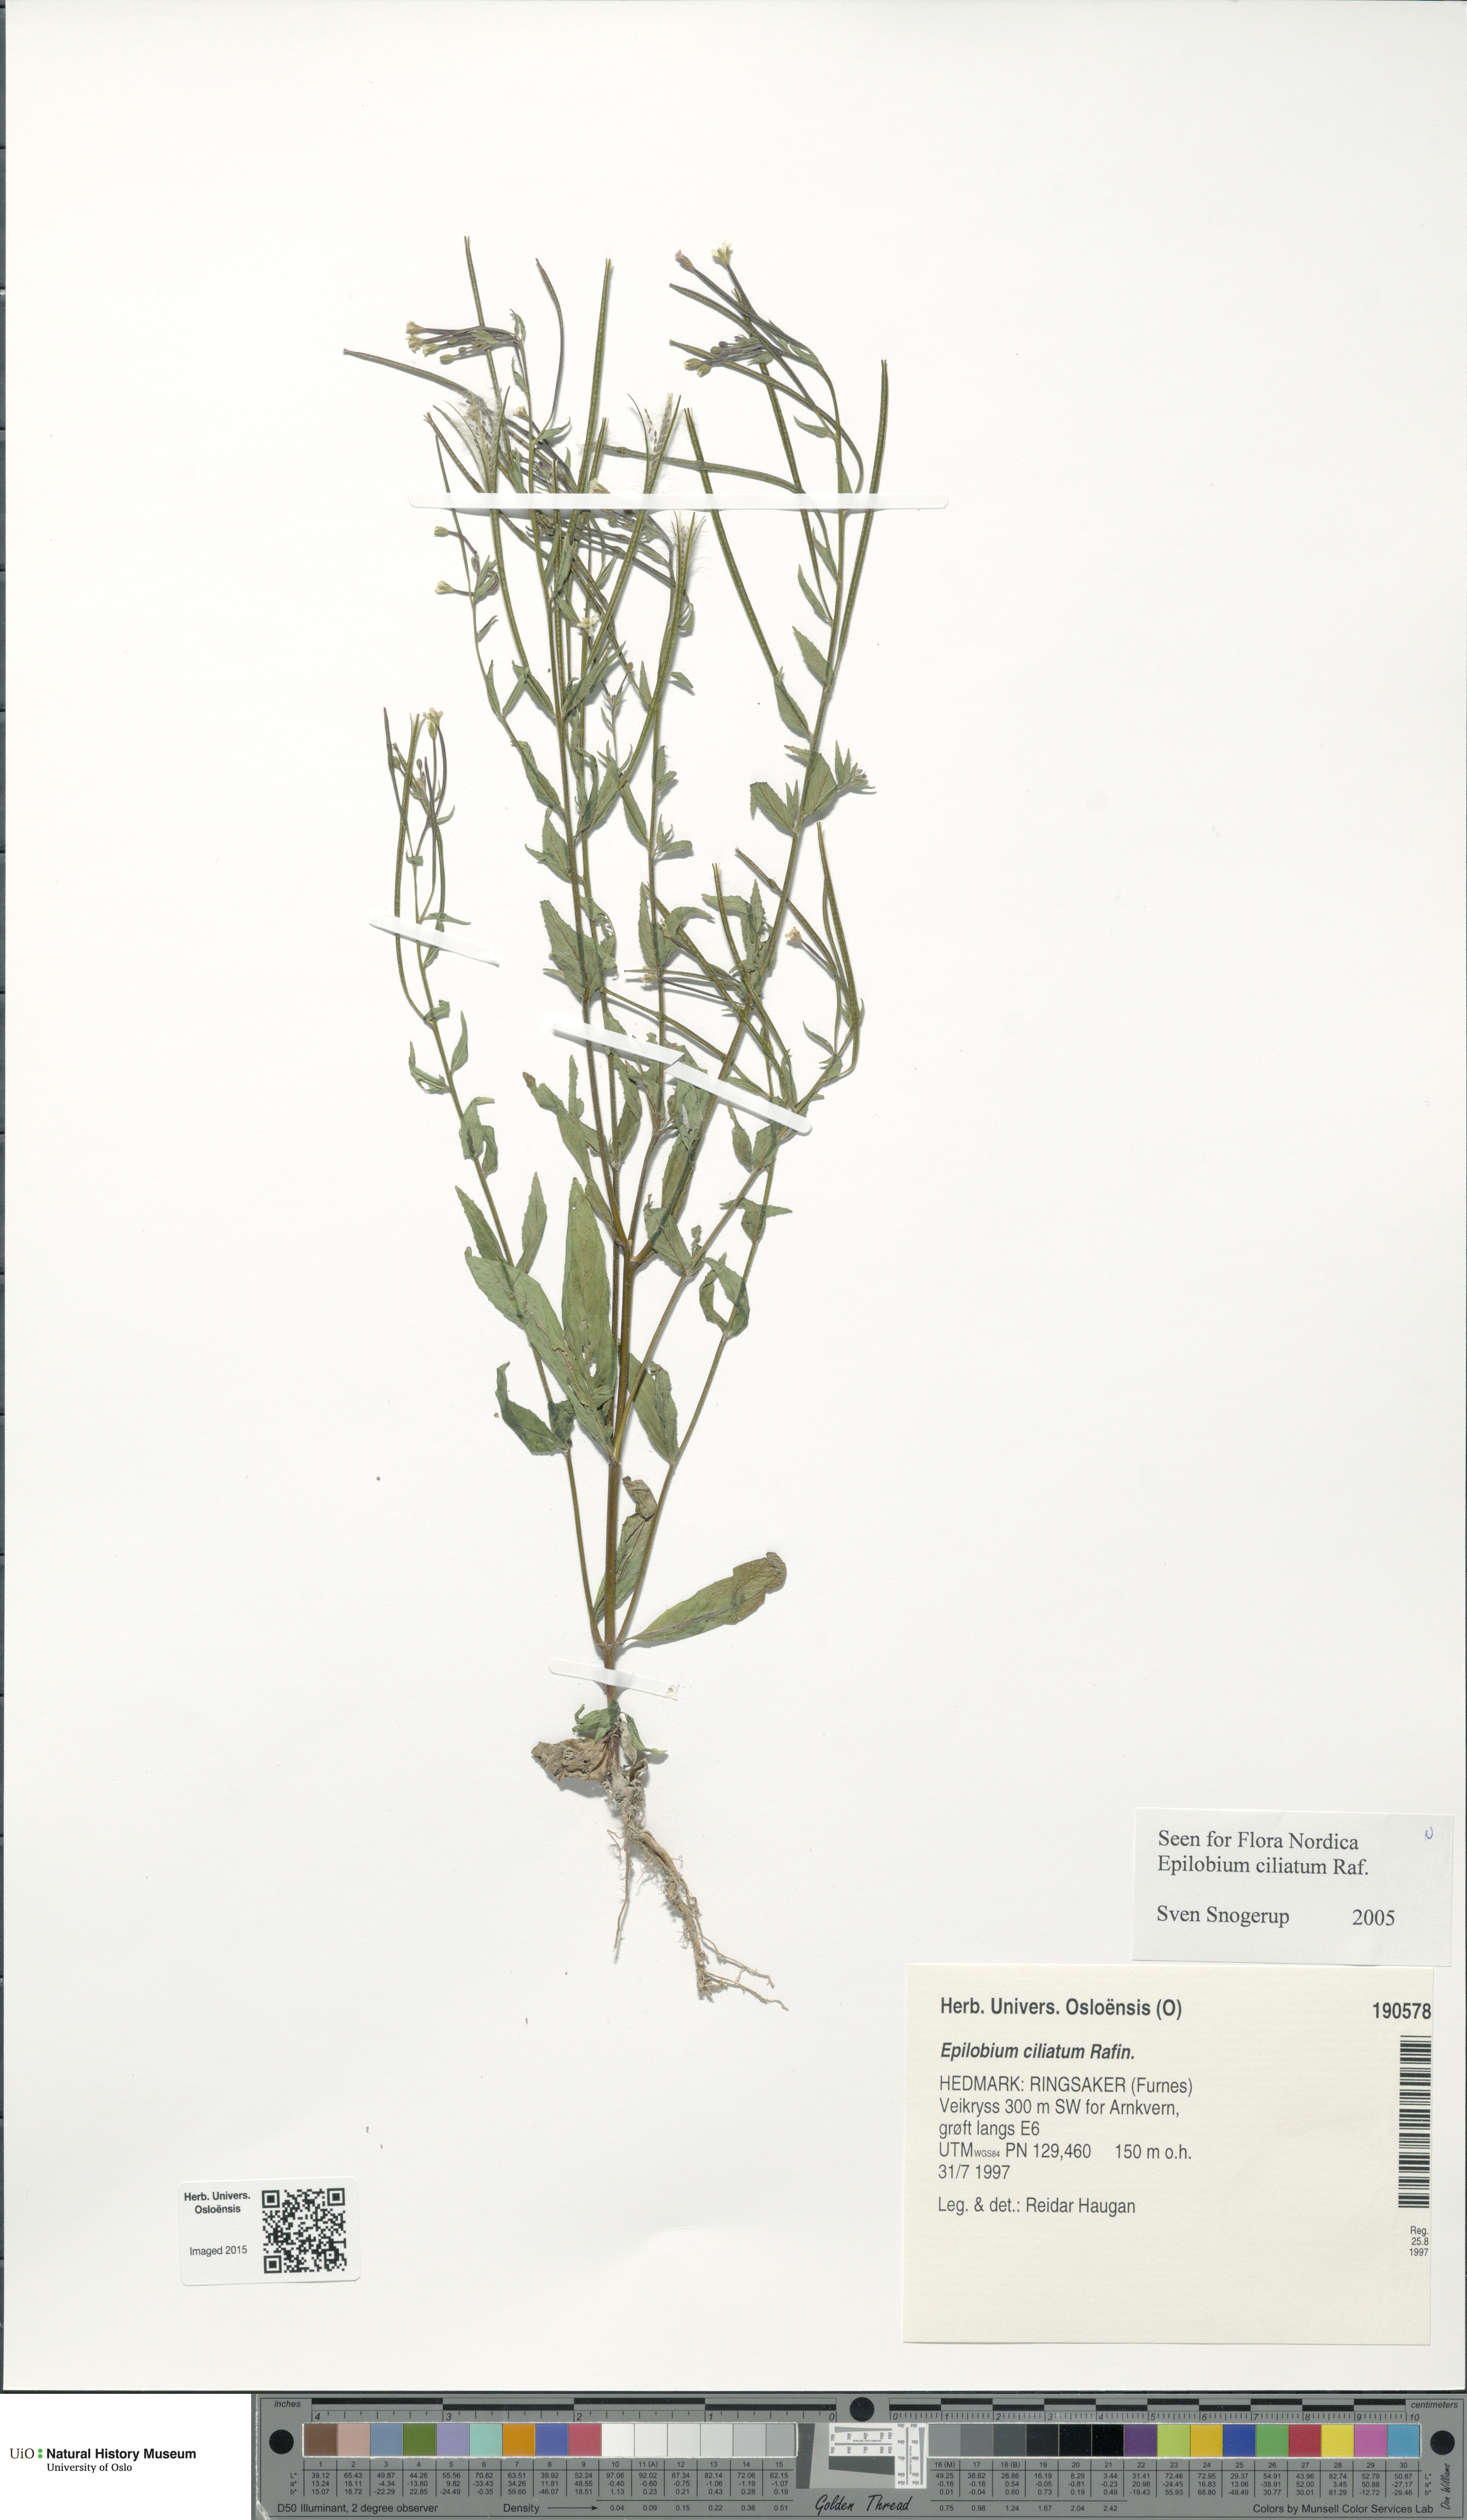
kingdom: Plantae
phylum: Tracheophyta
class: Magnoliopsida
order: Myrtales
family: Onagraceae
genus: Epilobium
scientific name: Epilobium ciliatum
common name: American willowherb
